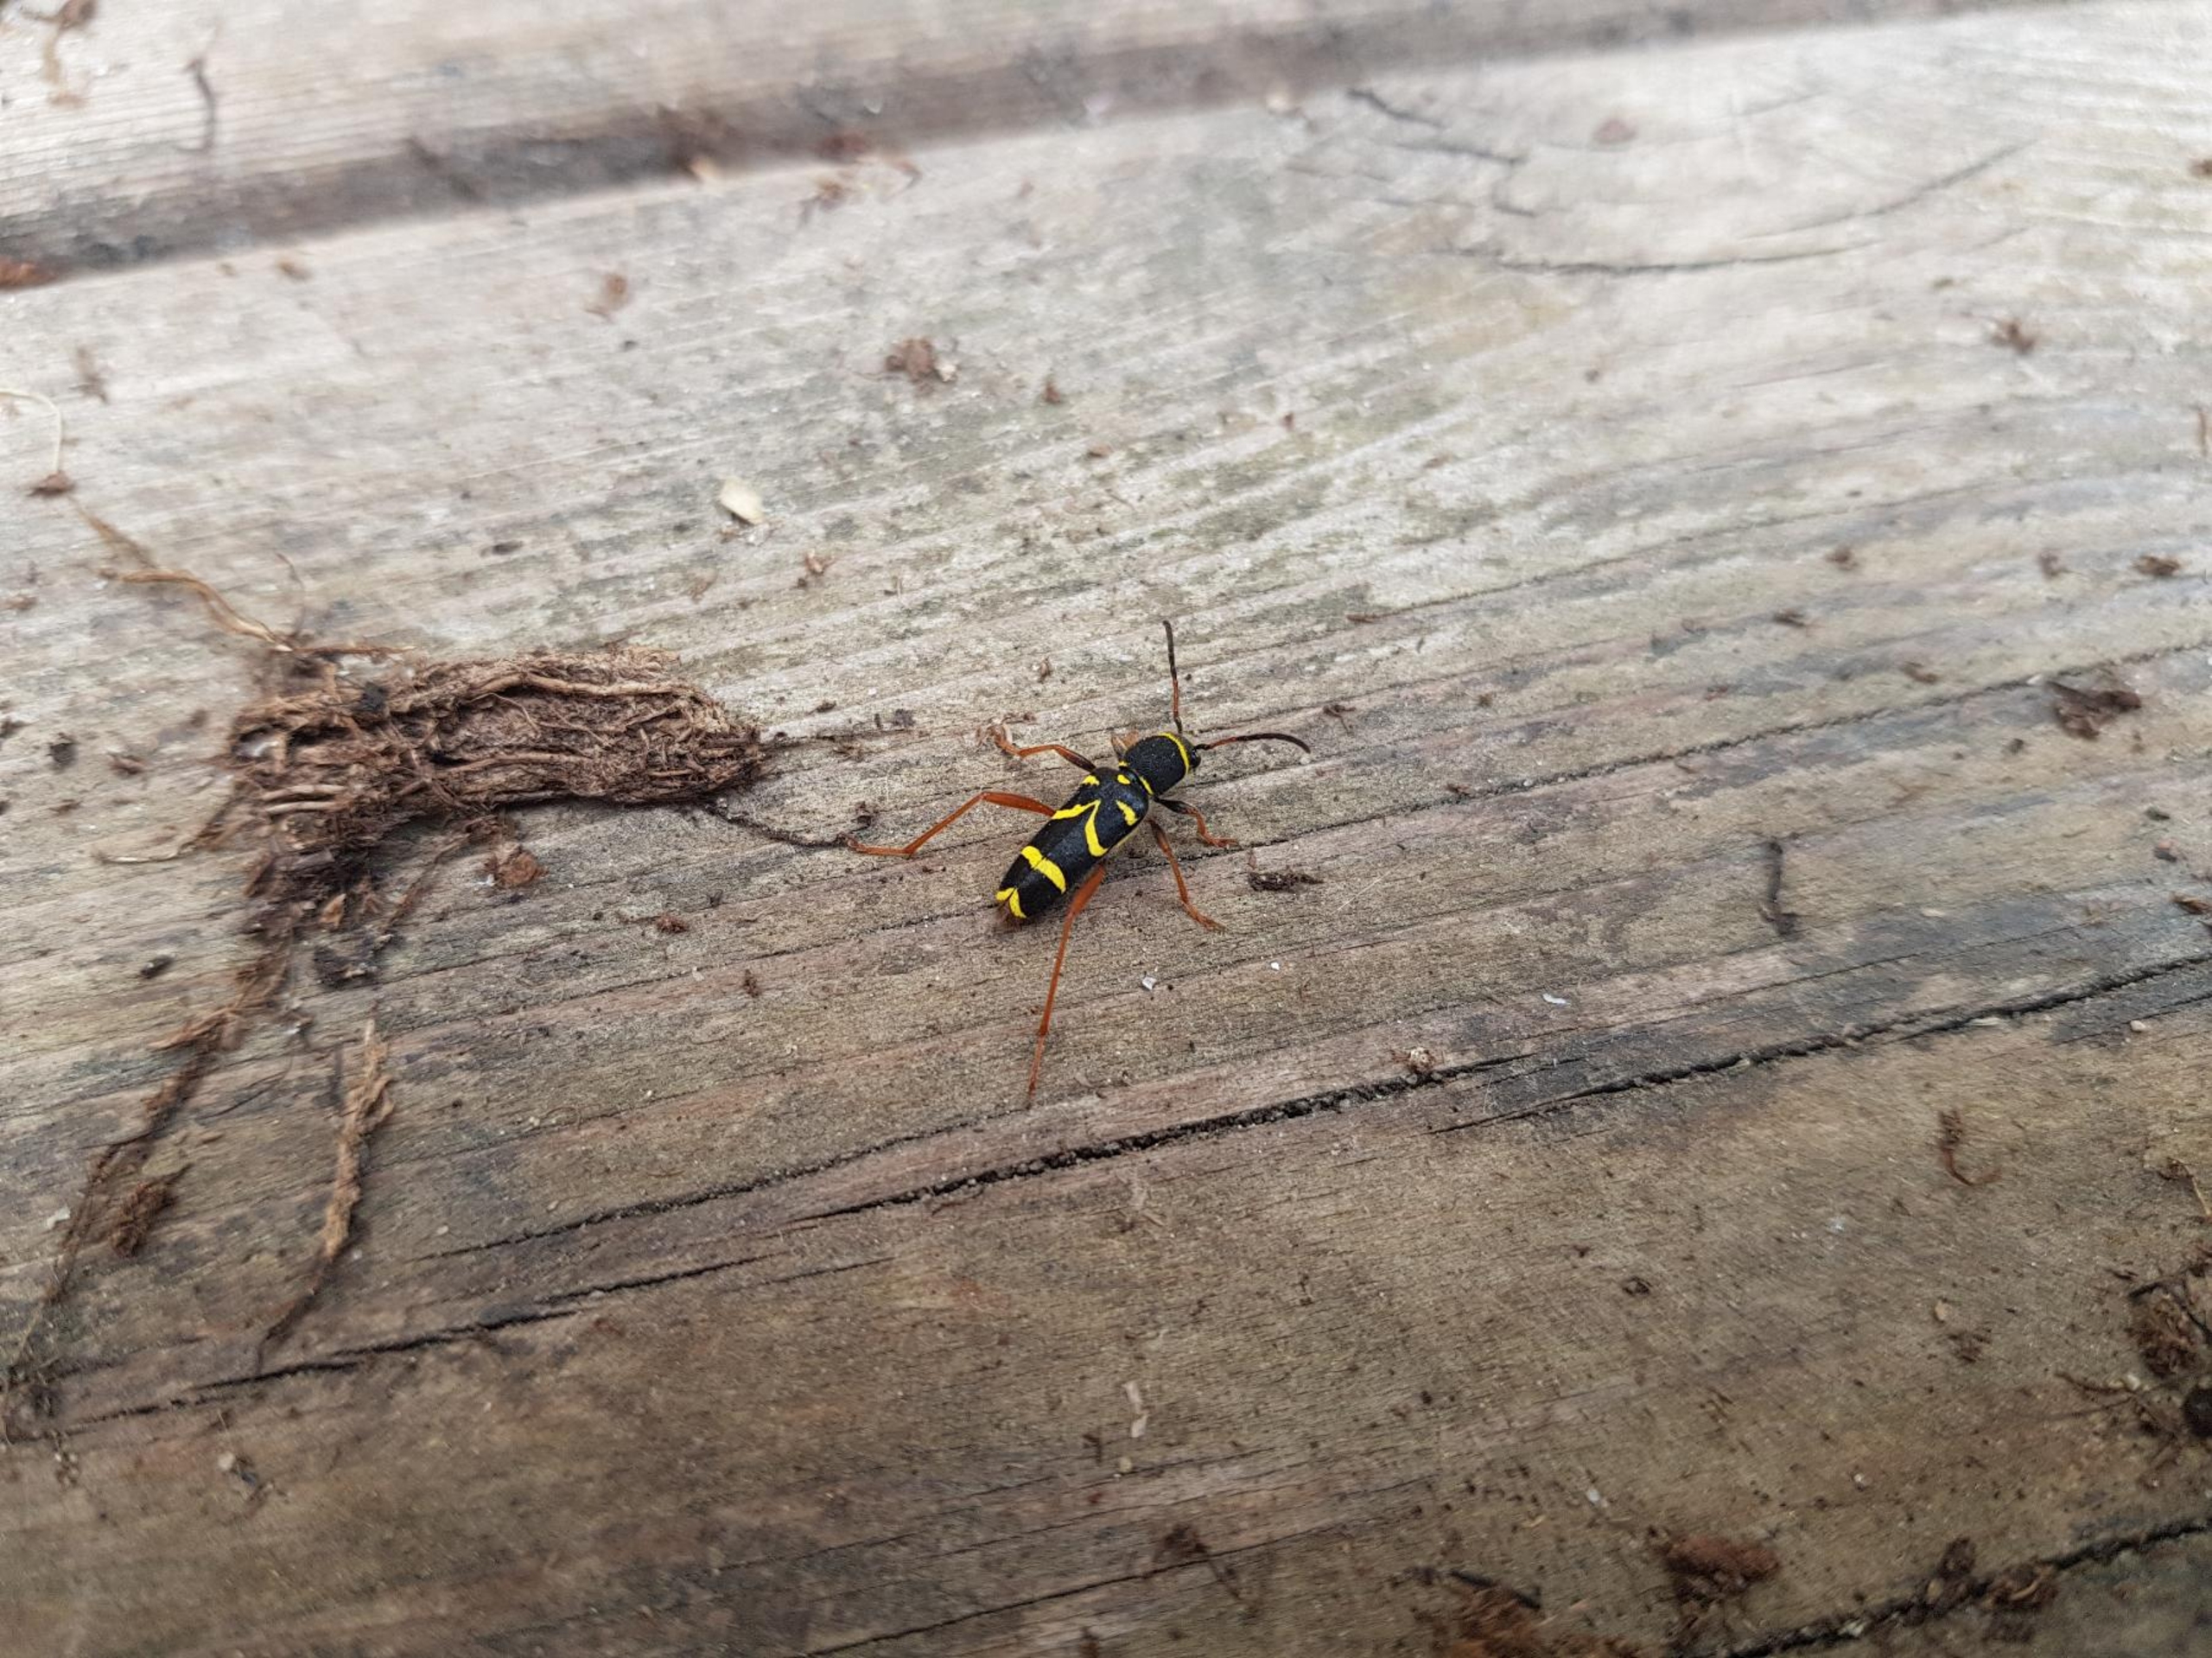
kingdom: Animalia
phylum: Arthropoda
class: Insecta
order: Coleoptera
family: Cerambycidae
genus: Clytus
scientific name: Clytus arietis
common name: Lille hvepsebuk
